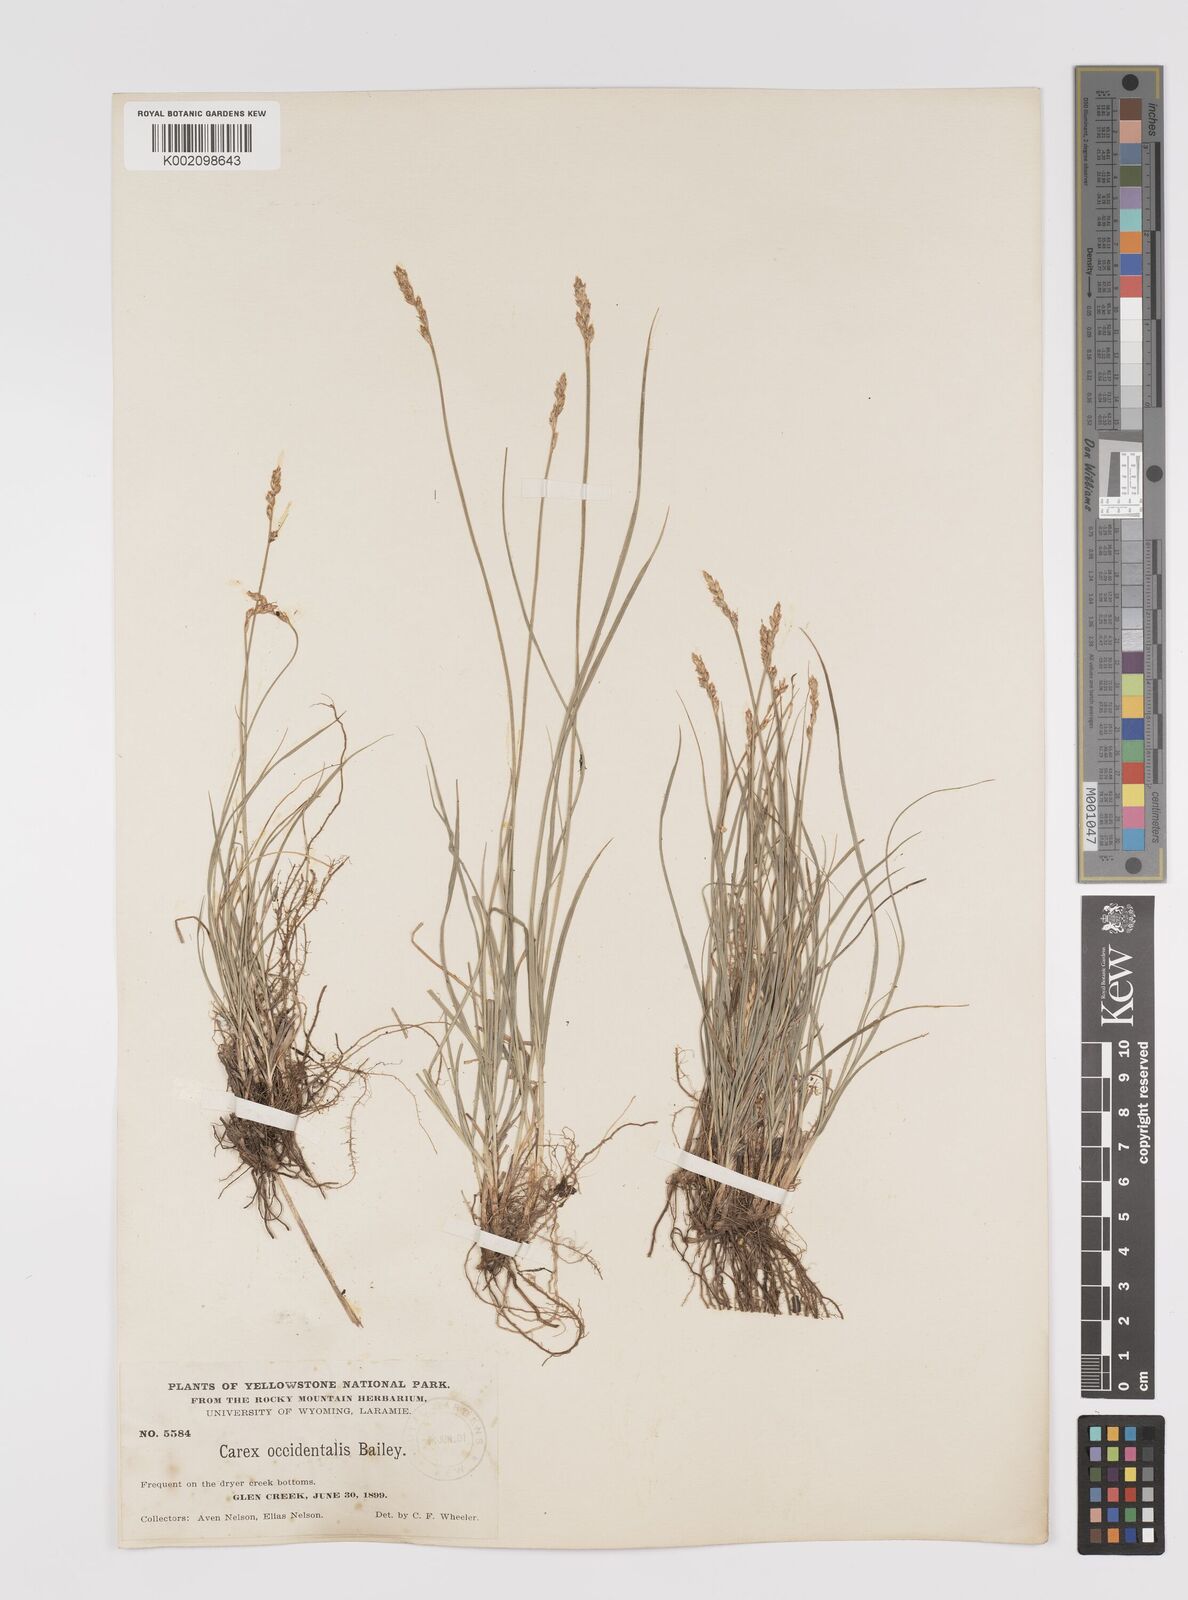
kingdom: Plantae
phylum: Tracheophyta
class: Liliopsida
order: Poales
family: Cyperaceae
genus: Carex
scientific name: Carex occidentalis
